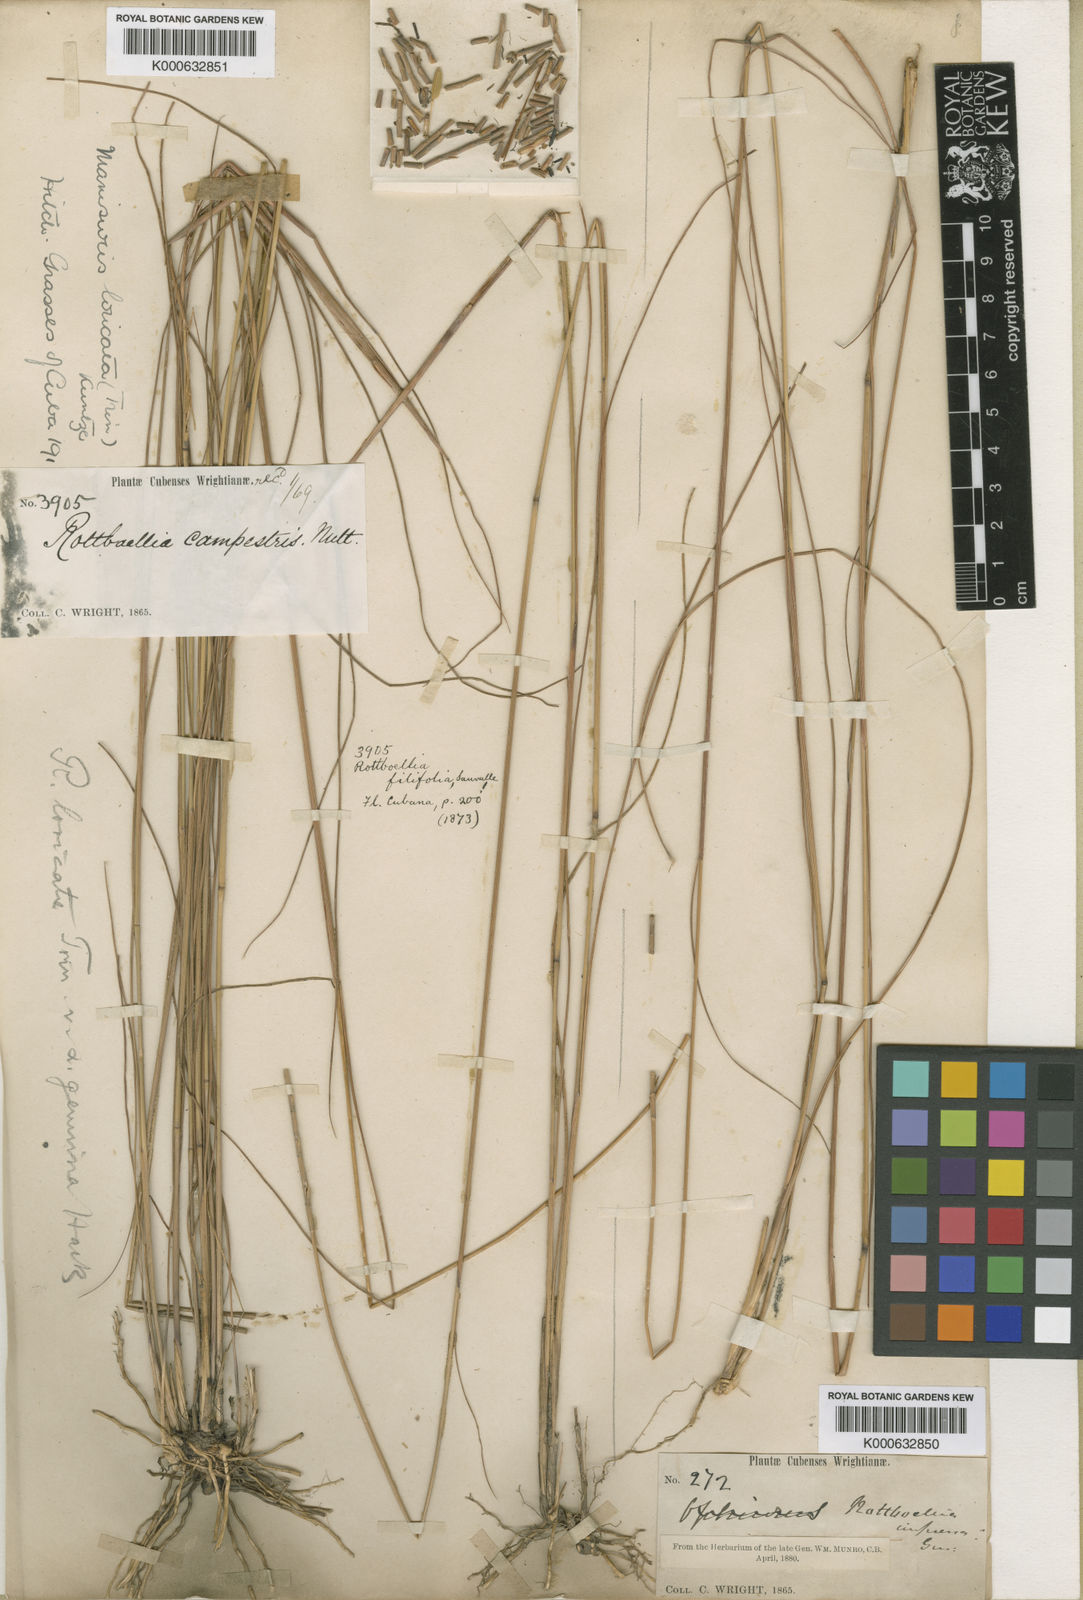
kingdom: Plantae
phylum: Tracheophyta
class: Liliopsida
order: Poales
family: Poaceae
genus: Rhytachne
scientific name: Rhytachne rottboellioides
